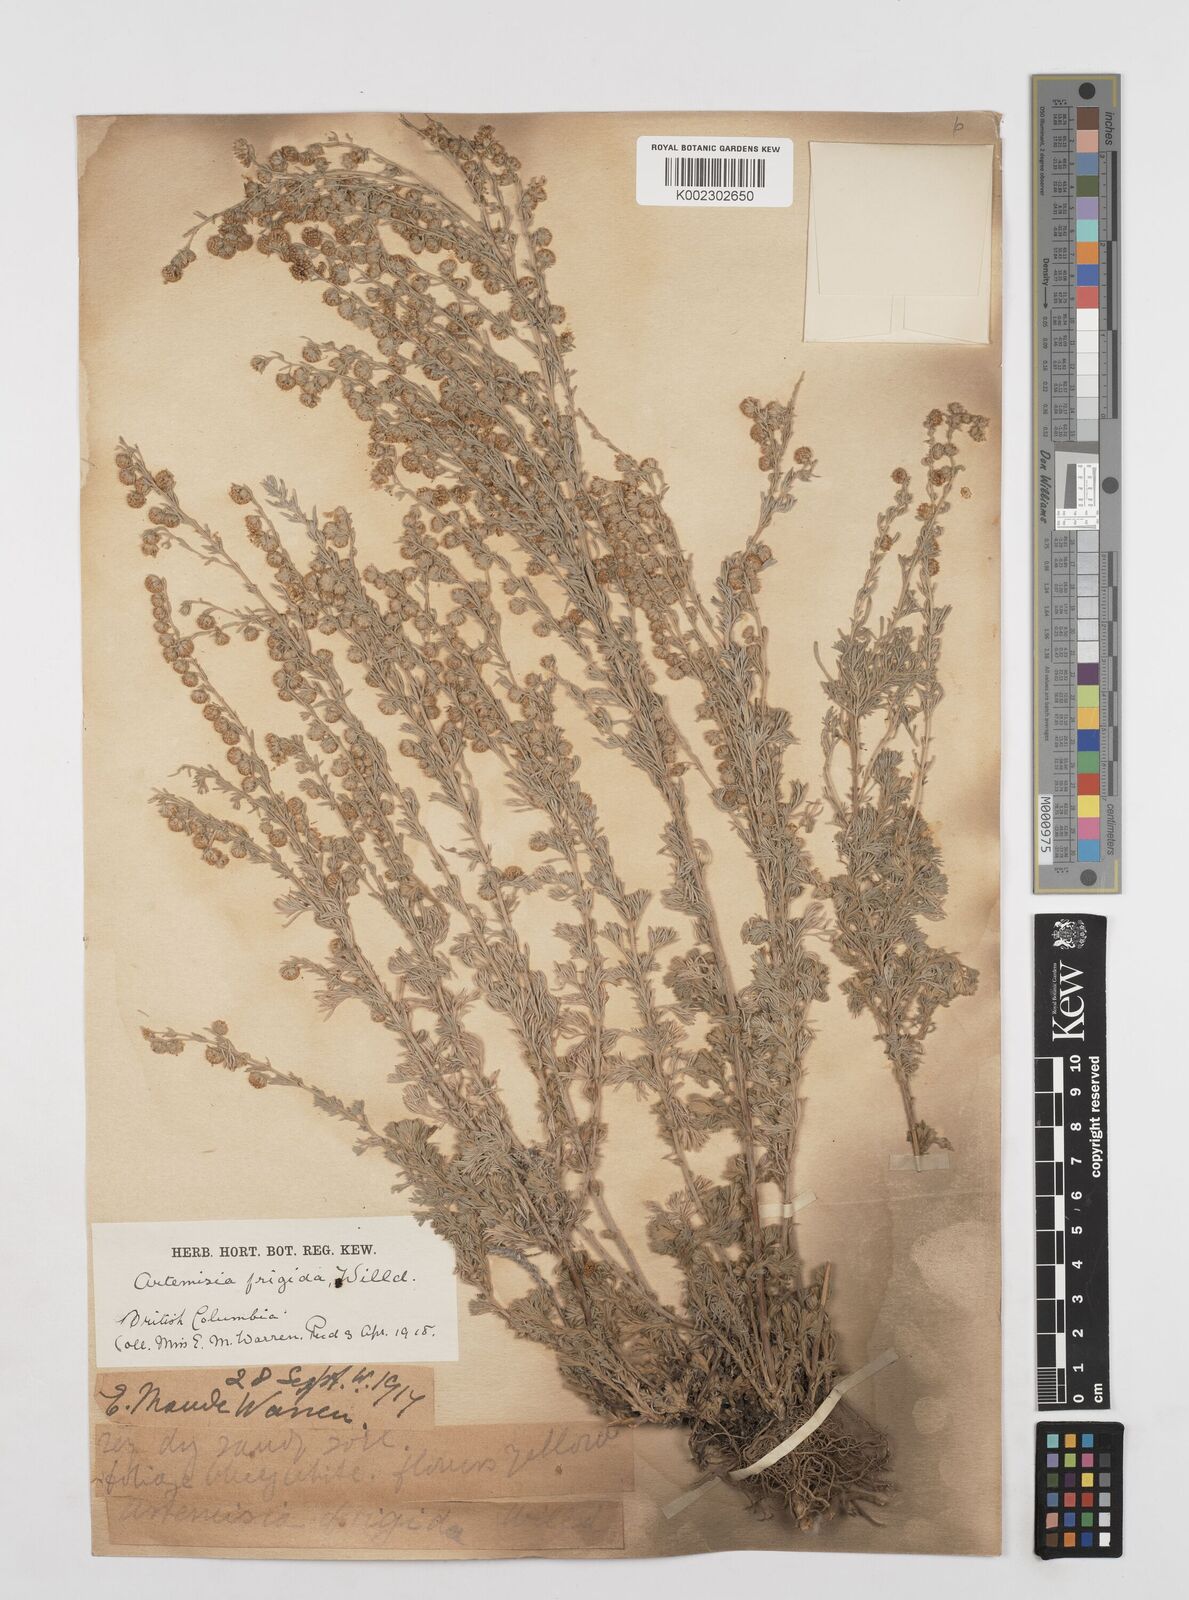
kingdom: Plantae
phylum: Tracheophyta
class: Magnoliopsida
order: Asterales
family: Asteraceae
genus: Artemisia
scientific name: Artemisia frigida
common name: Prairie sagewort
